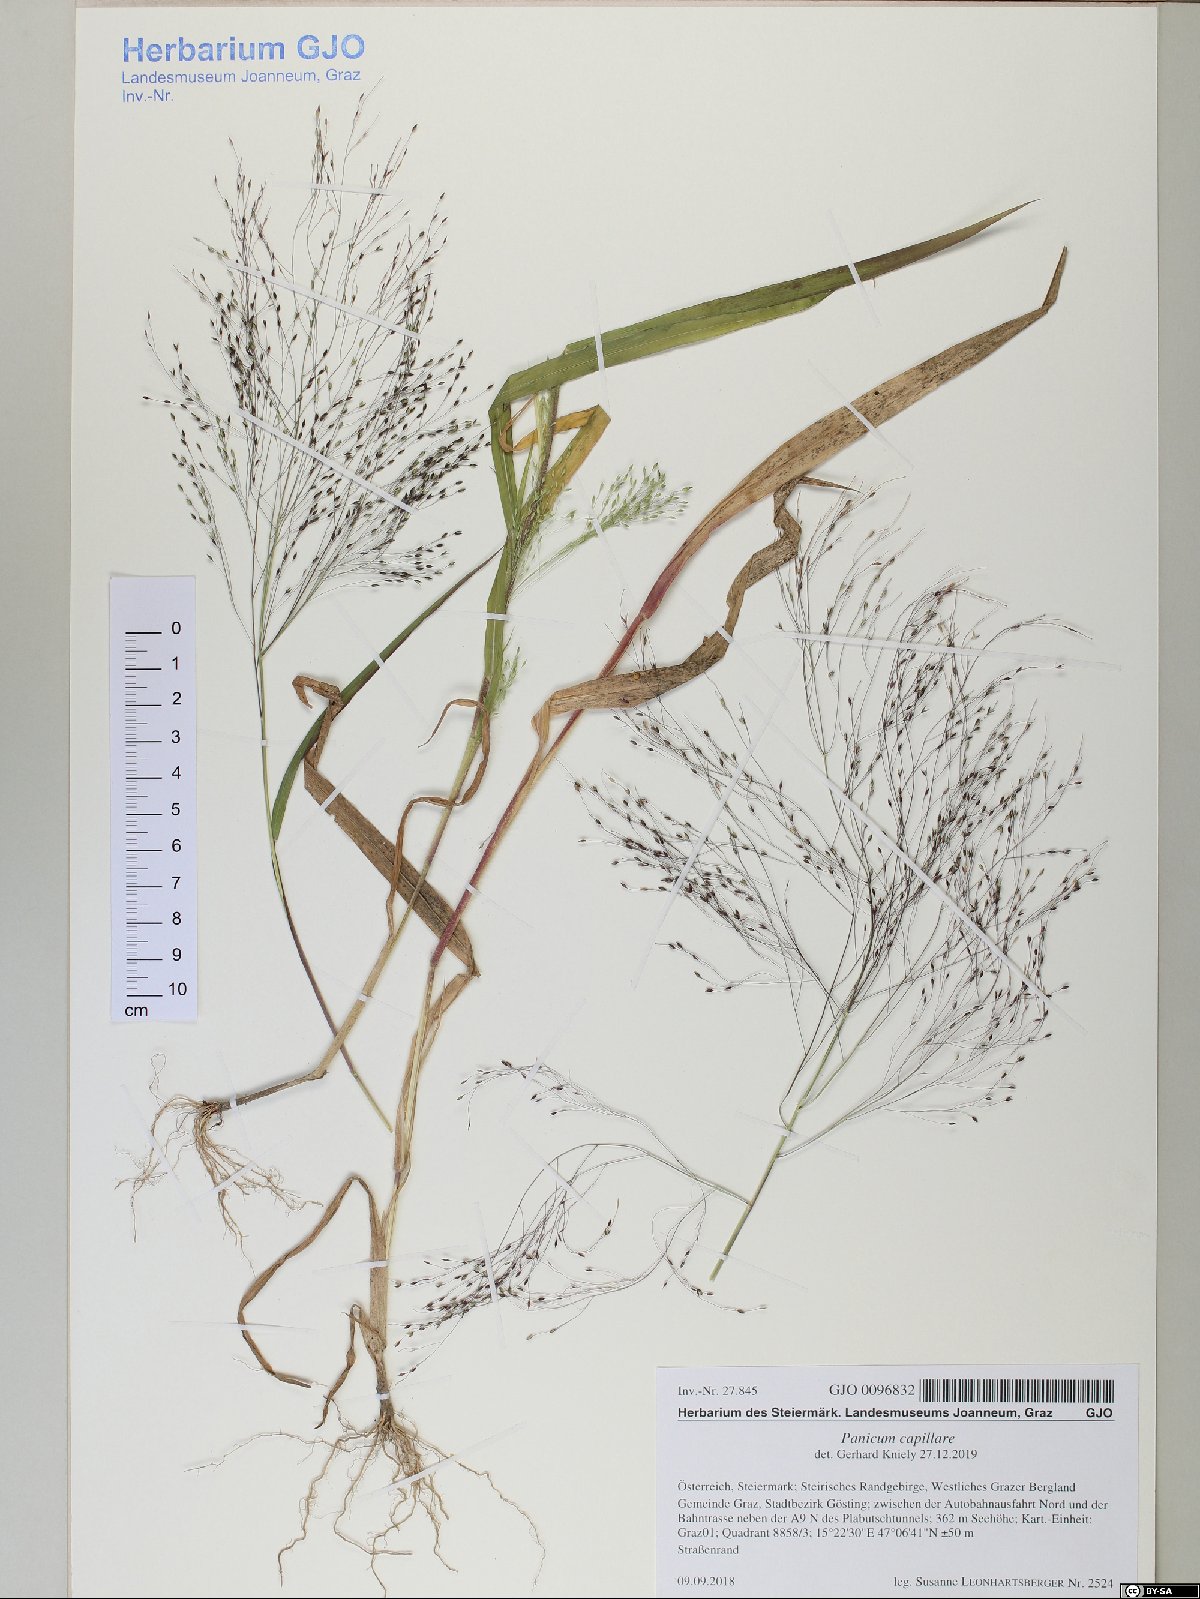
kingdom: Plantae
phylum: Tracheophyta
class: Liliopsida
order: Poales
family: Poaceae
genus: Panicum
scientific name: Panicum capillare
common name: Witch-grass
